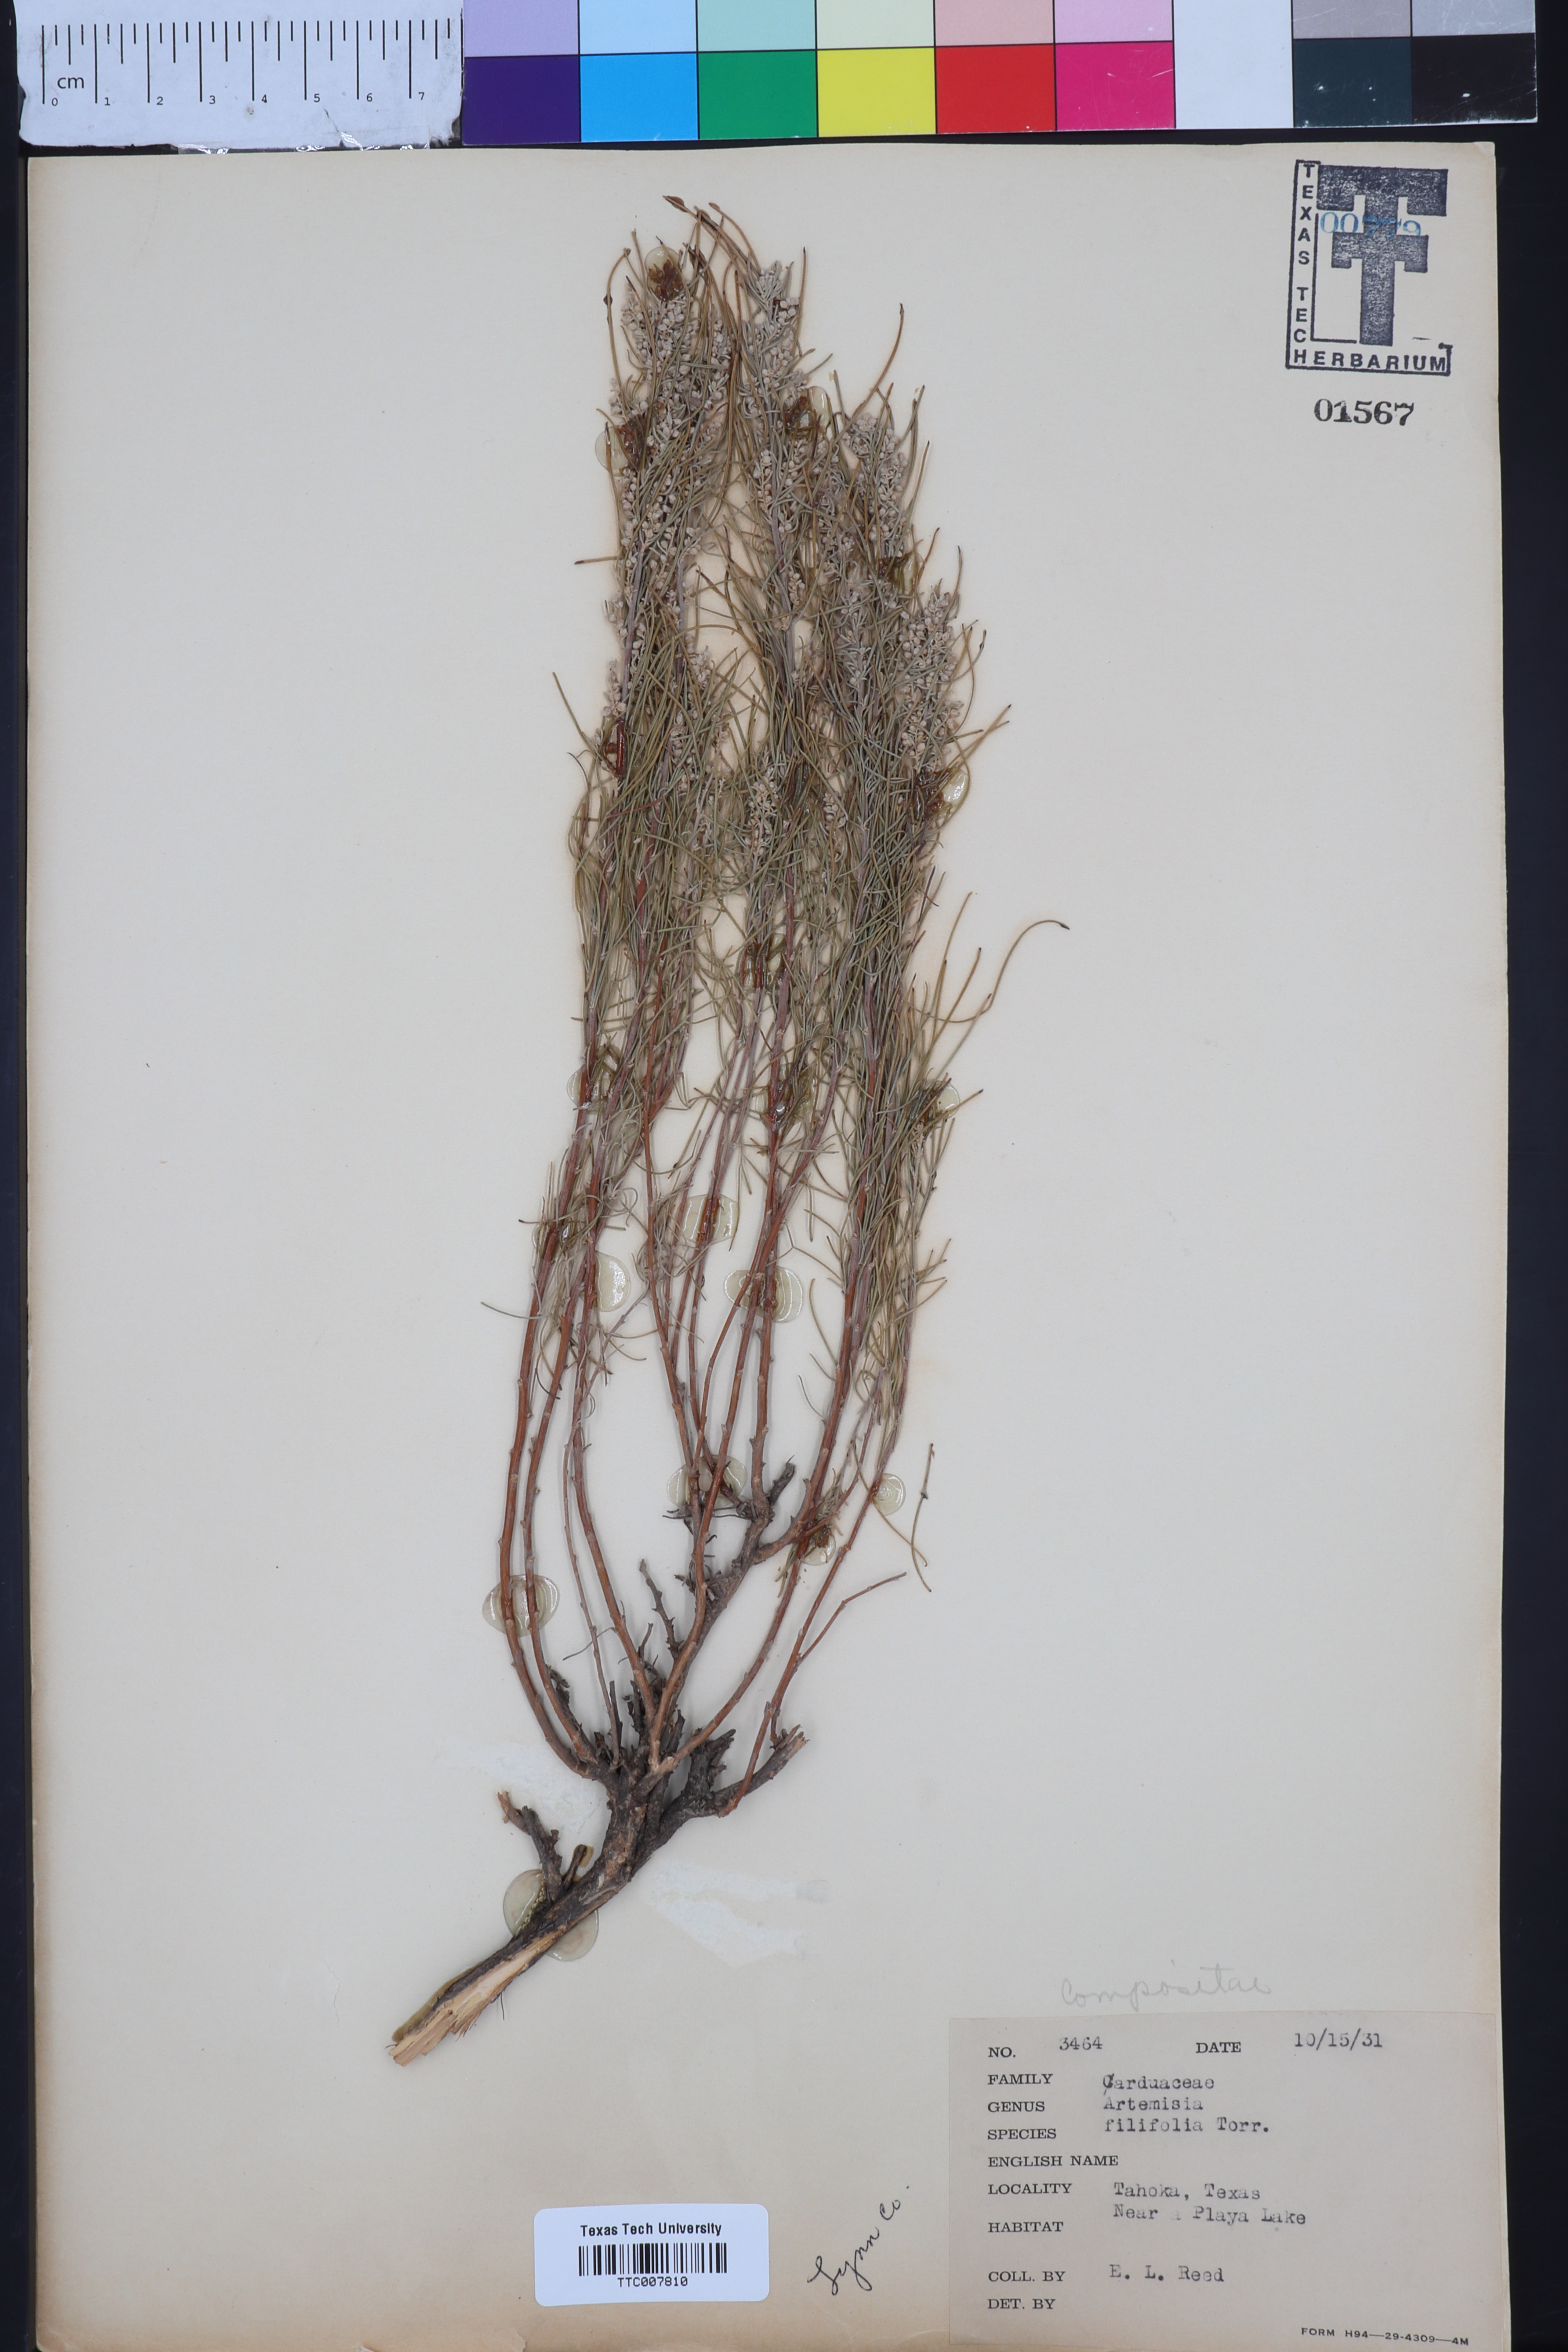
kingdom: Plantae
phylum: Tracheophyta
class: Magnoliopsida
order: Asterales
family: Asteraceae
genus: Artemisia
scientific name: Artemisia filifolia
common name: Sand-sage
